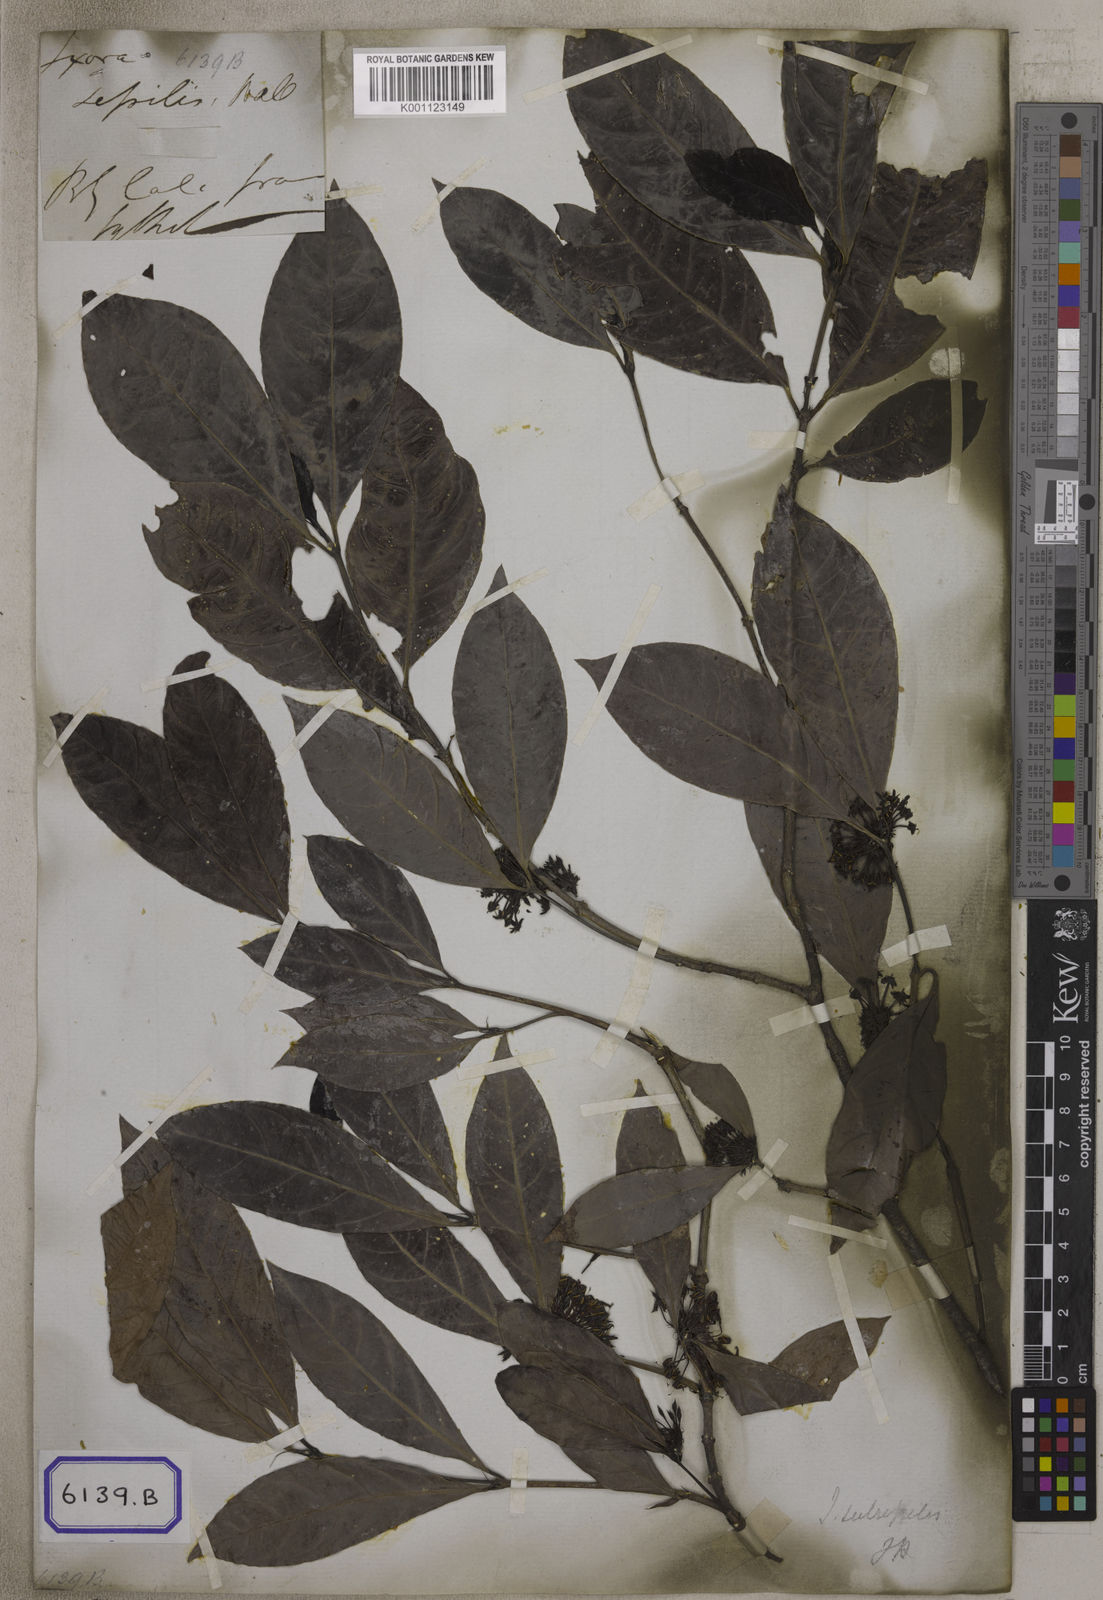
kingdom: Plantae
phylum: Tracheophyta
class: Magnoliopsida
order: Gentianales
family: Rubiaceae
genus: Ixora
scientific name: Ixora
